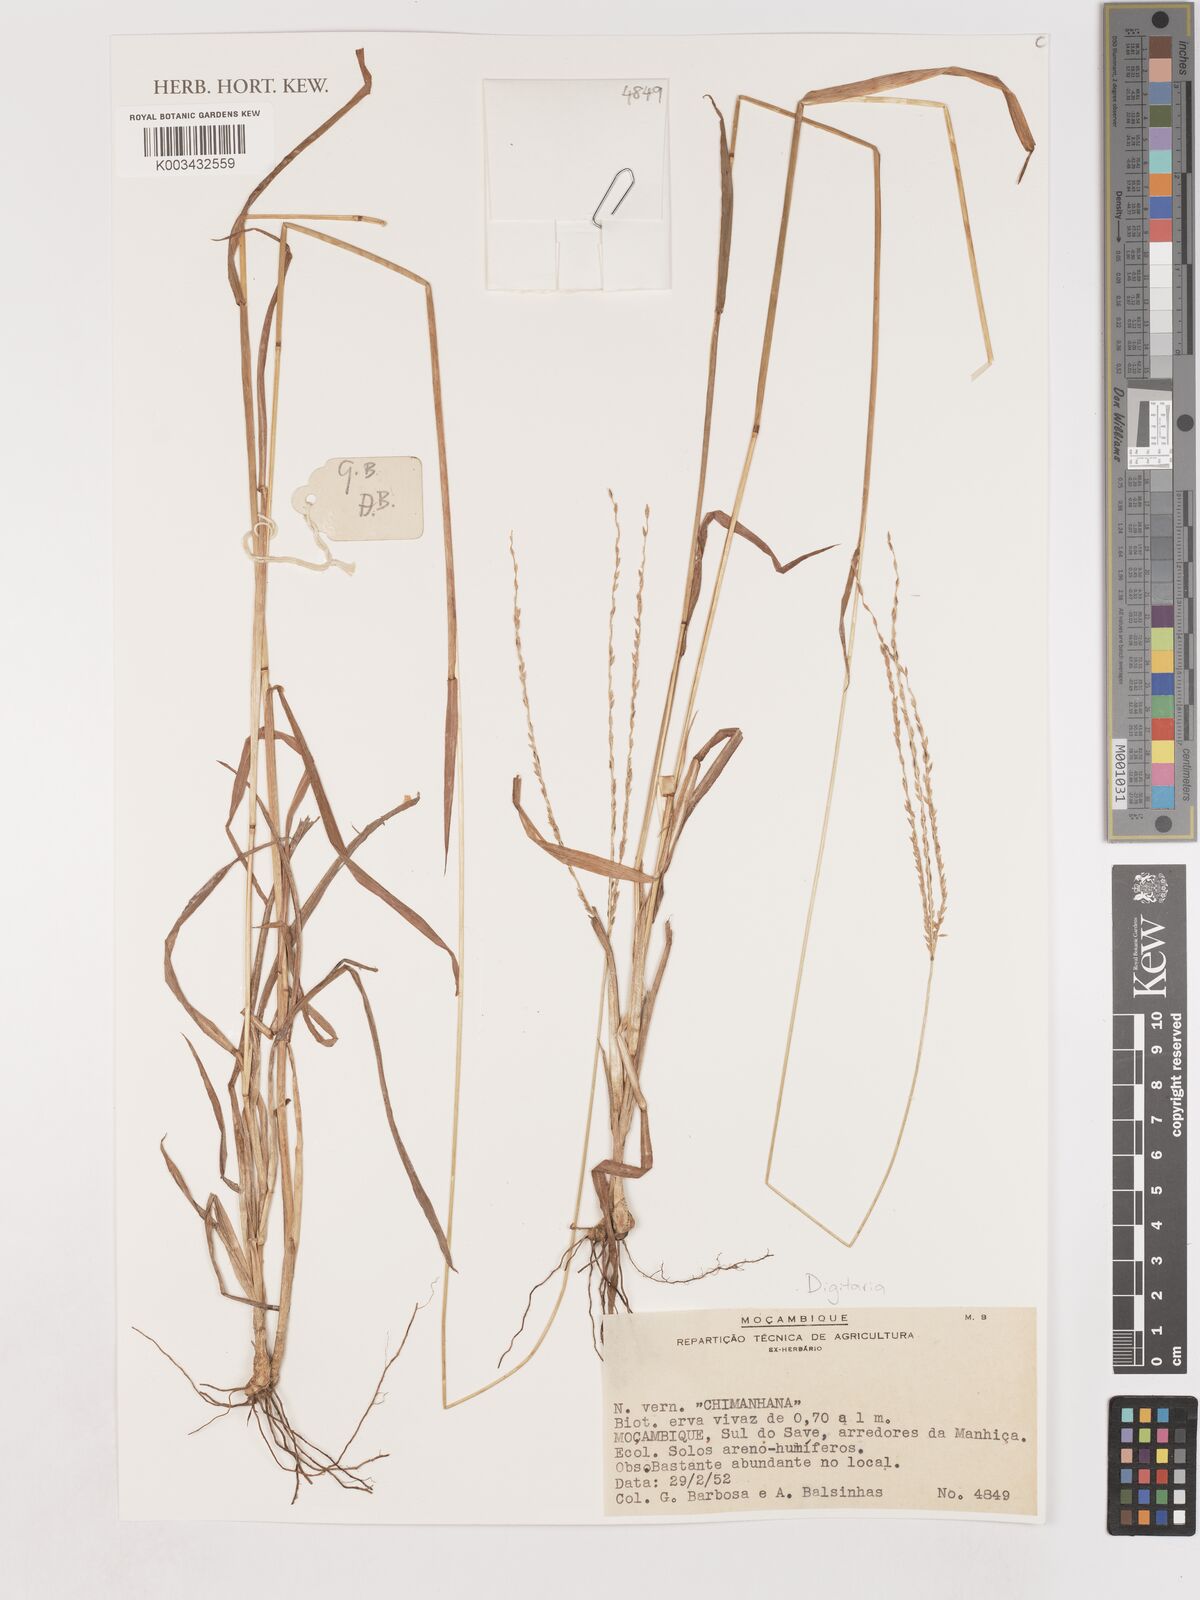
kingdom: Plantae
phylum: Tracheophyta
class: Liliopsida
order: Poales
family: Poaceae
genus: Digitaria
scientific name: Digitaria spec
